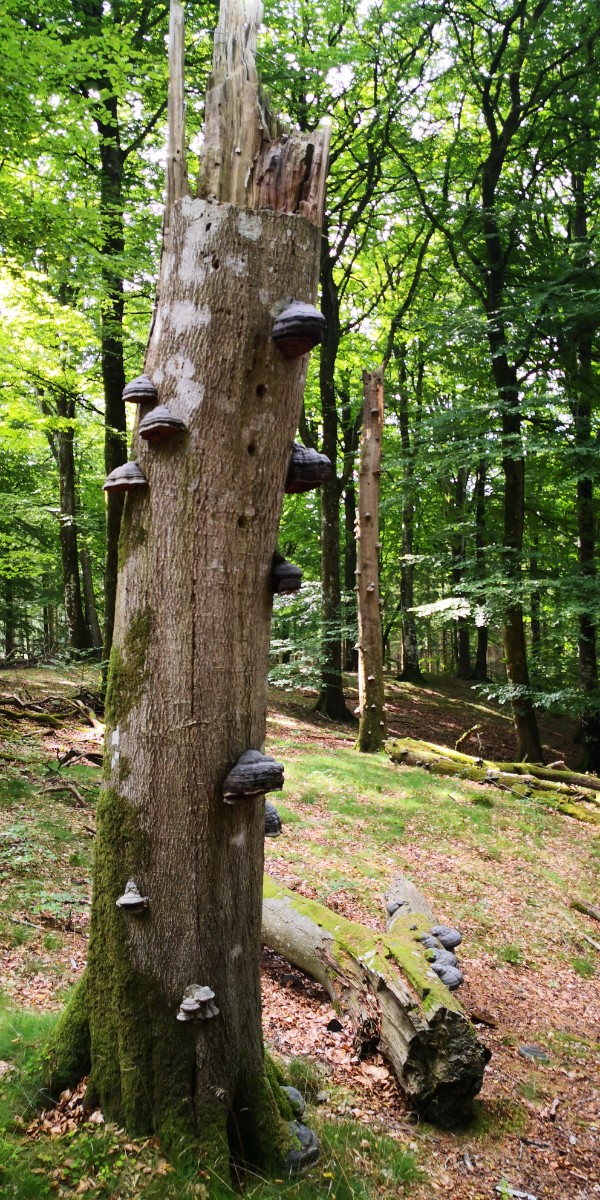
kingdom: Fungi
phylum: Basidiomycota
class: Agaricomycetes
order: Polyporales
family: Polyporaceae
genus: Fomes
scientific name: Fomes fomentarius
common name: tøndersvamp
